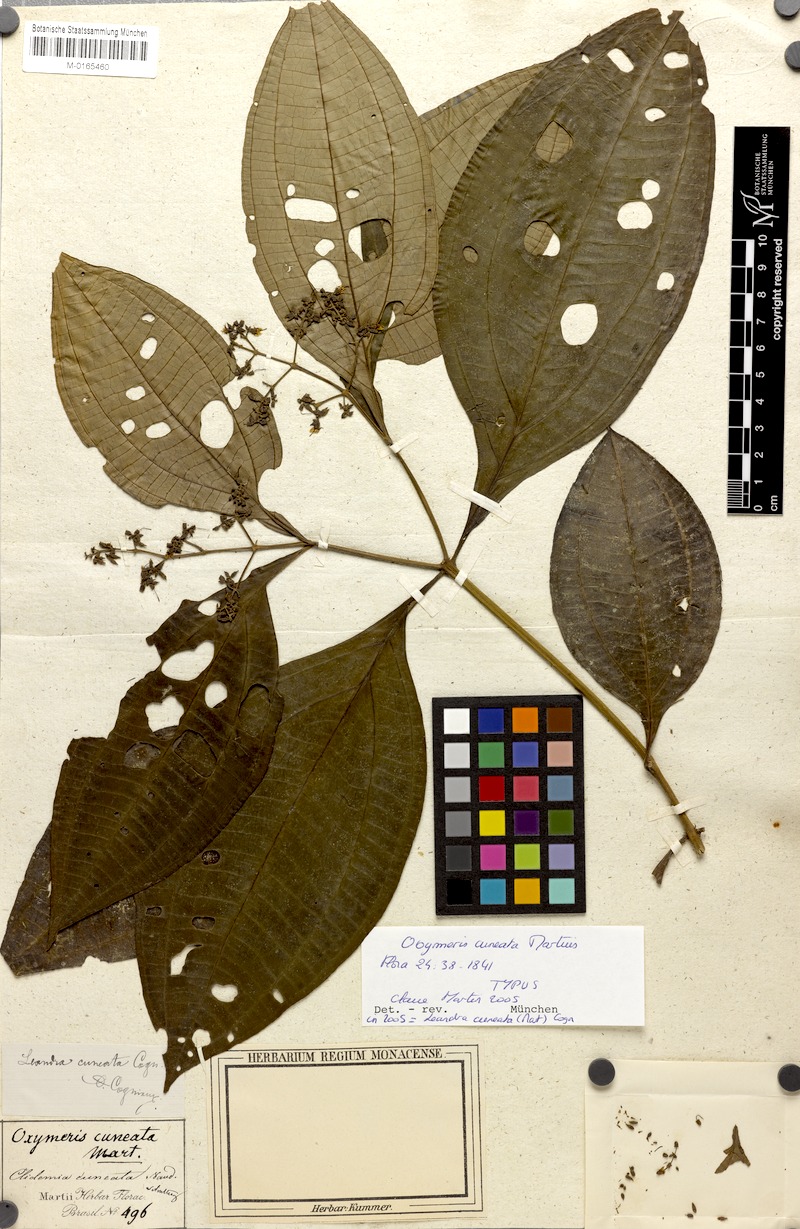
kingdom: Plantae
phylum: Tracheophyta
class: Magnoliopsida
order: Myrtales
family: Melastomataceae
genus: Miconia
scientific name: Miconia cuneatissima
